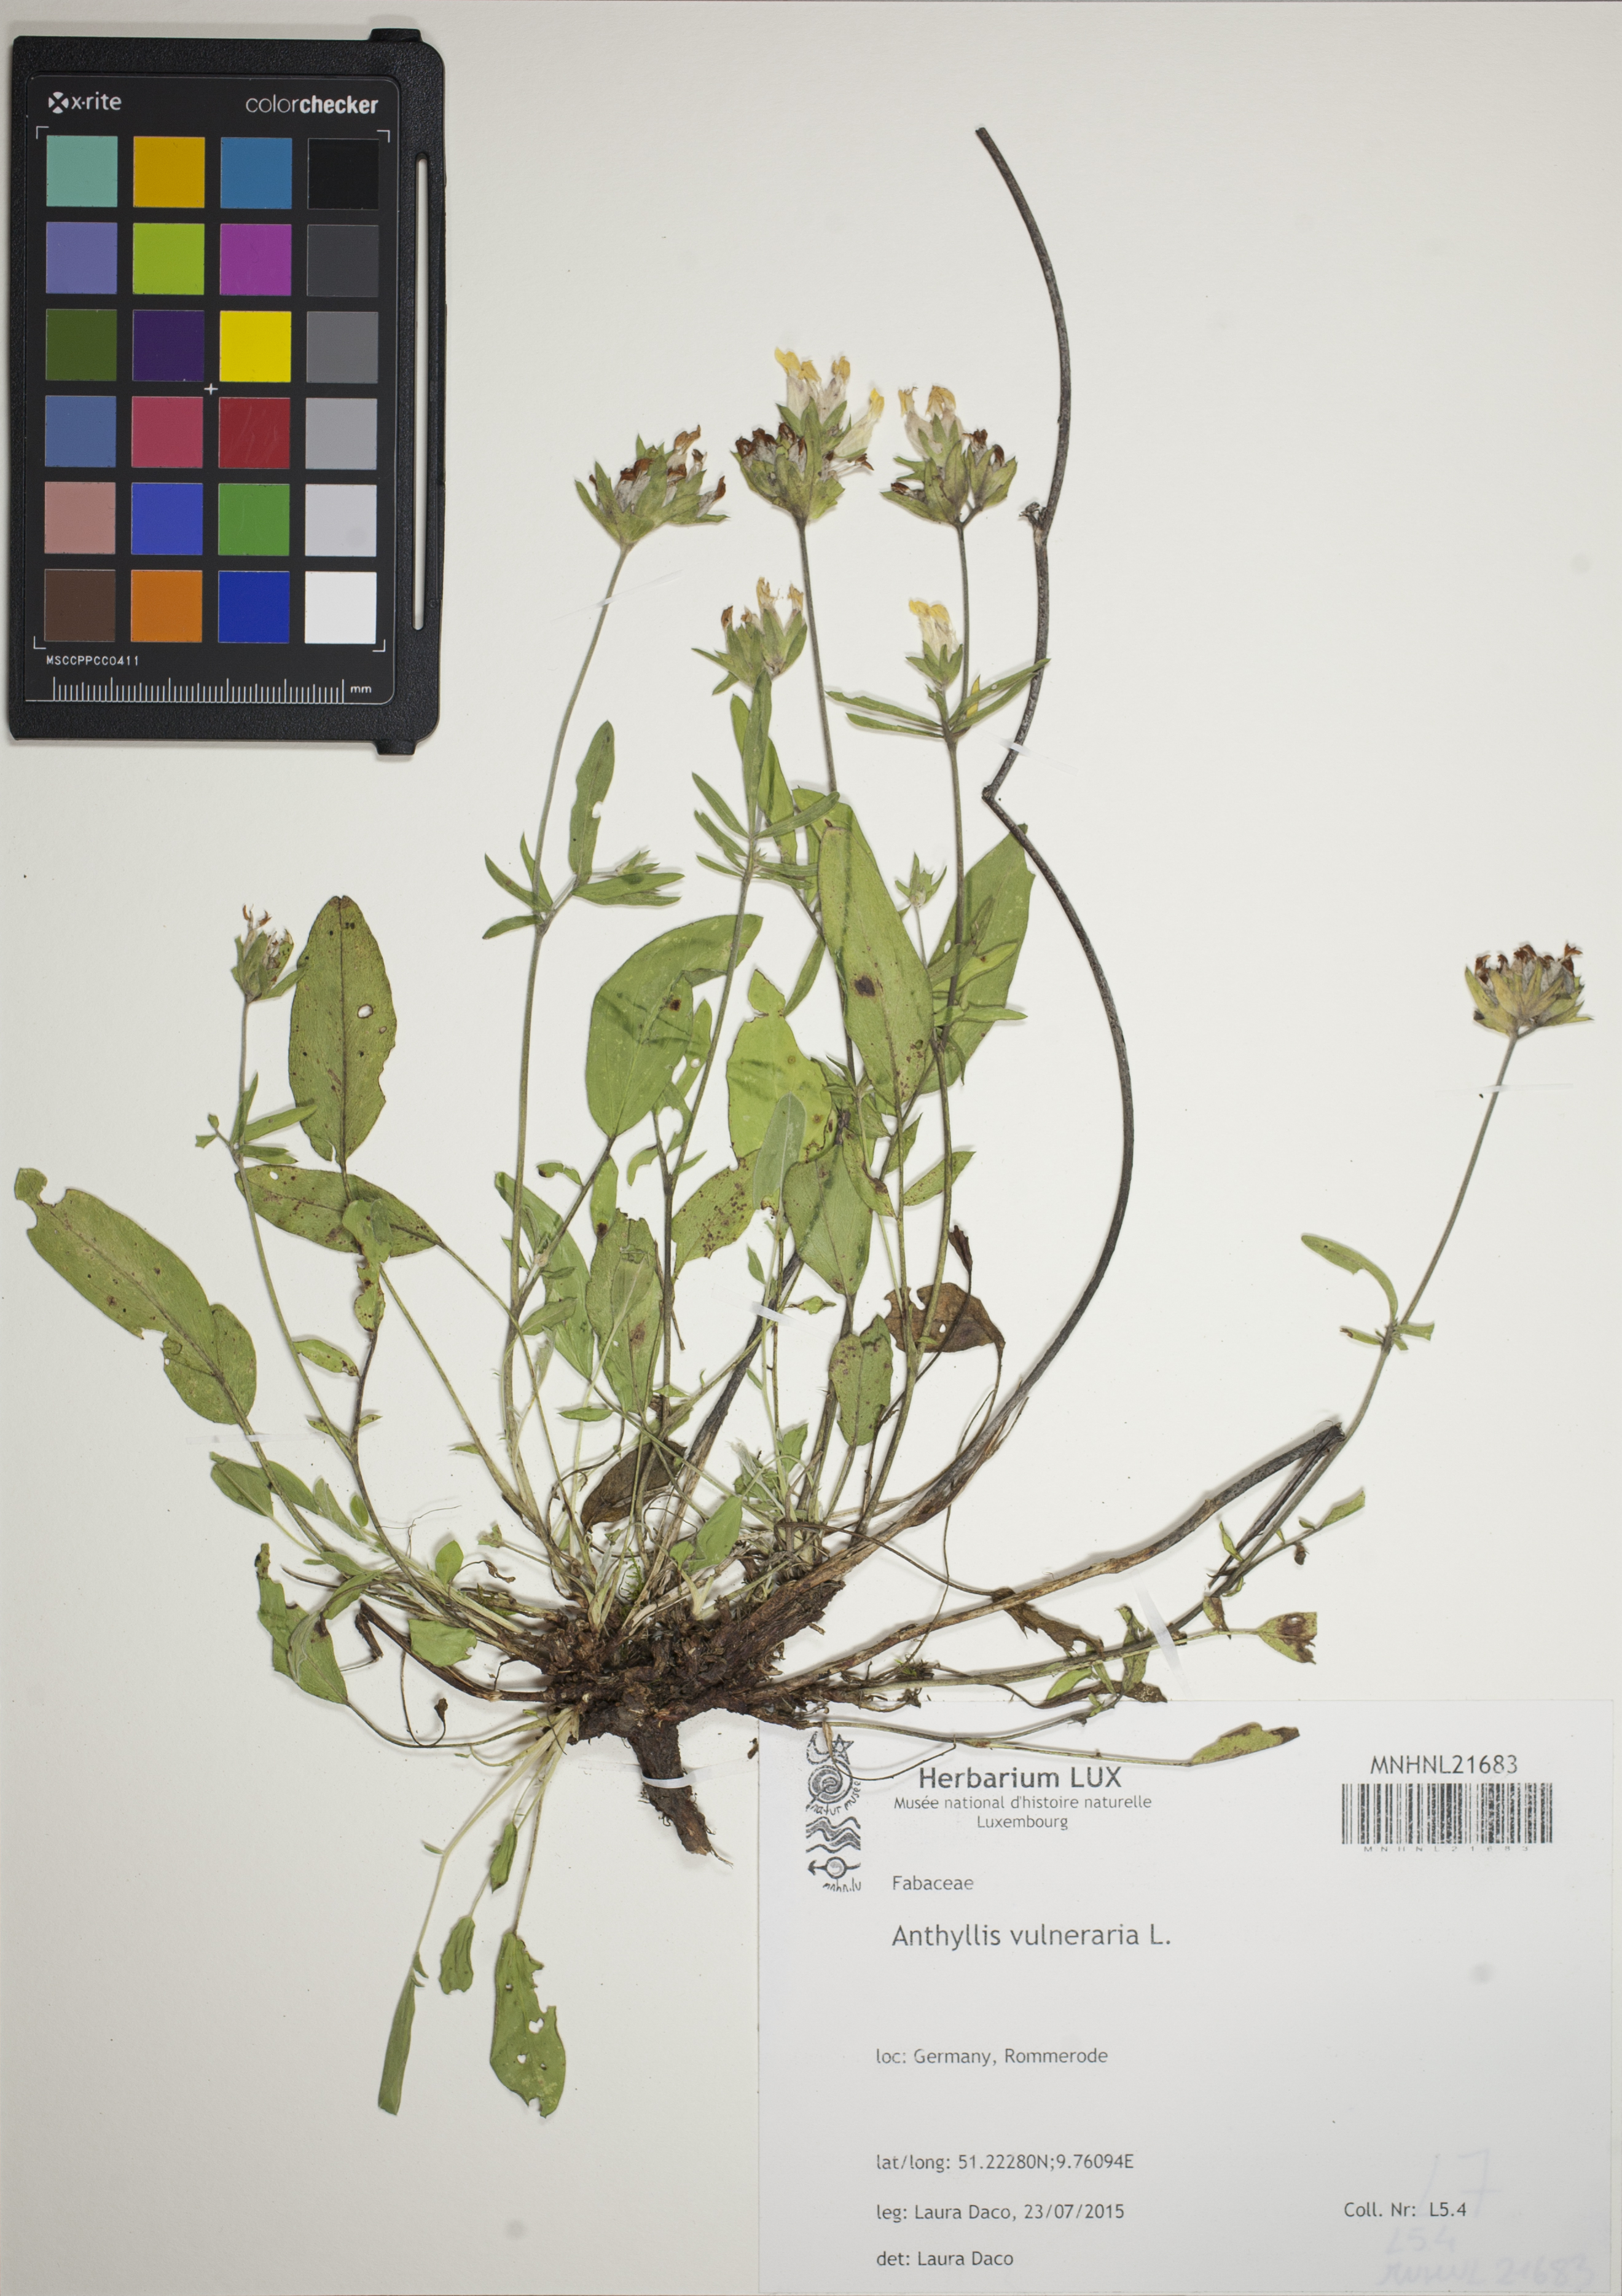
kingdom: Plantae
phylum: Tracheophyta
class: Magnoliopsida
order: Fabales
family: Fabaceae
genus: Anthyllis
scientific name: Anthyllis vulneraria
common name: Kidney vetch
